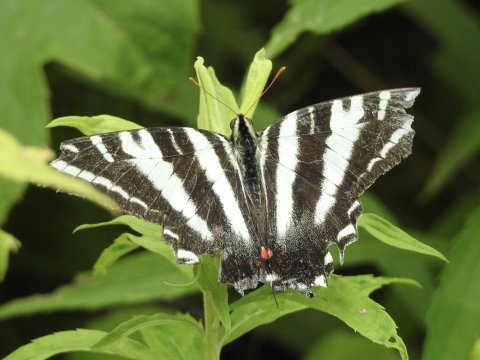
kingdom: Animalia
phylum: Arthropoda
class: Insecta
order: Lepidoptera
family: Papilionidae
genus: Protographium
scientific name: Protographium marcellus
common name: Zebra Swallowtail
